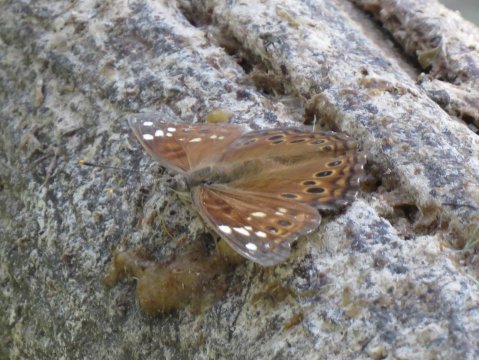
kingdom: Animalia
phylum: Arthropoda
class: Insecta
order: Lepidoptera
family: Nymphalidae
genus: Asterocampa
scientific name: Asterocampa leilia
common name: Empress Leilia
